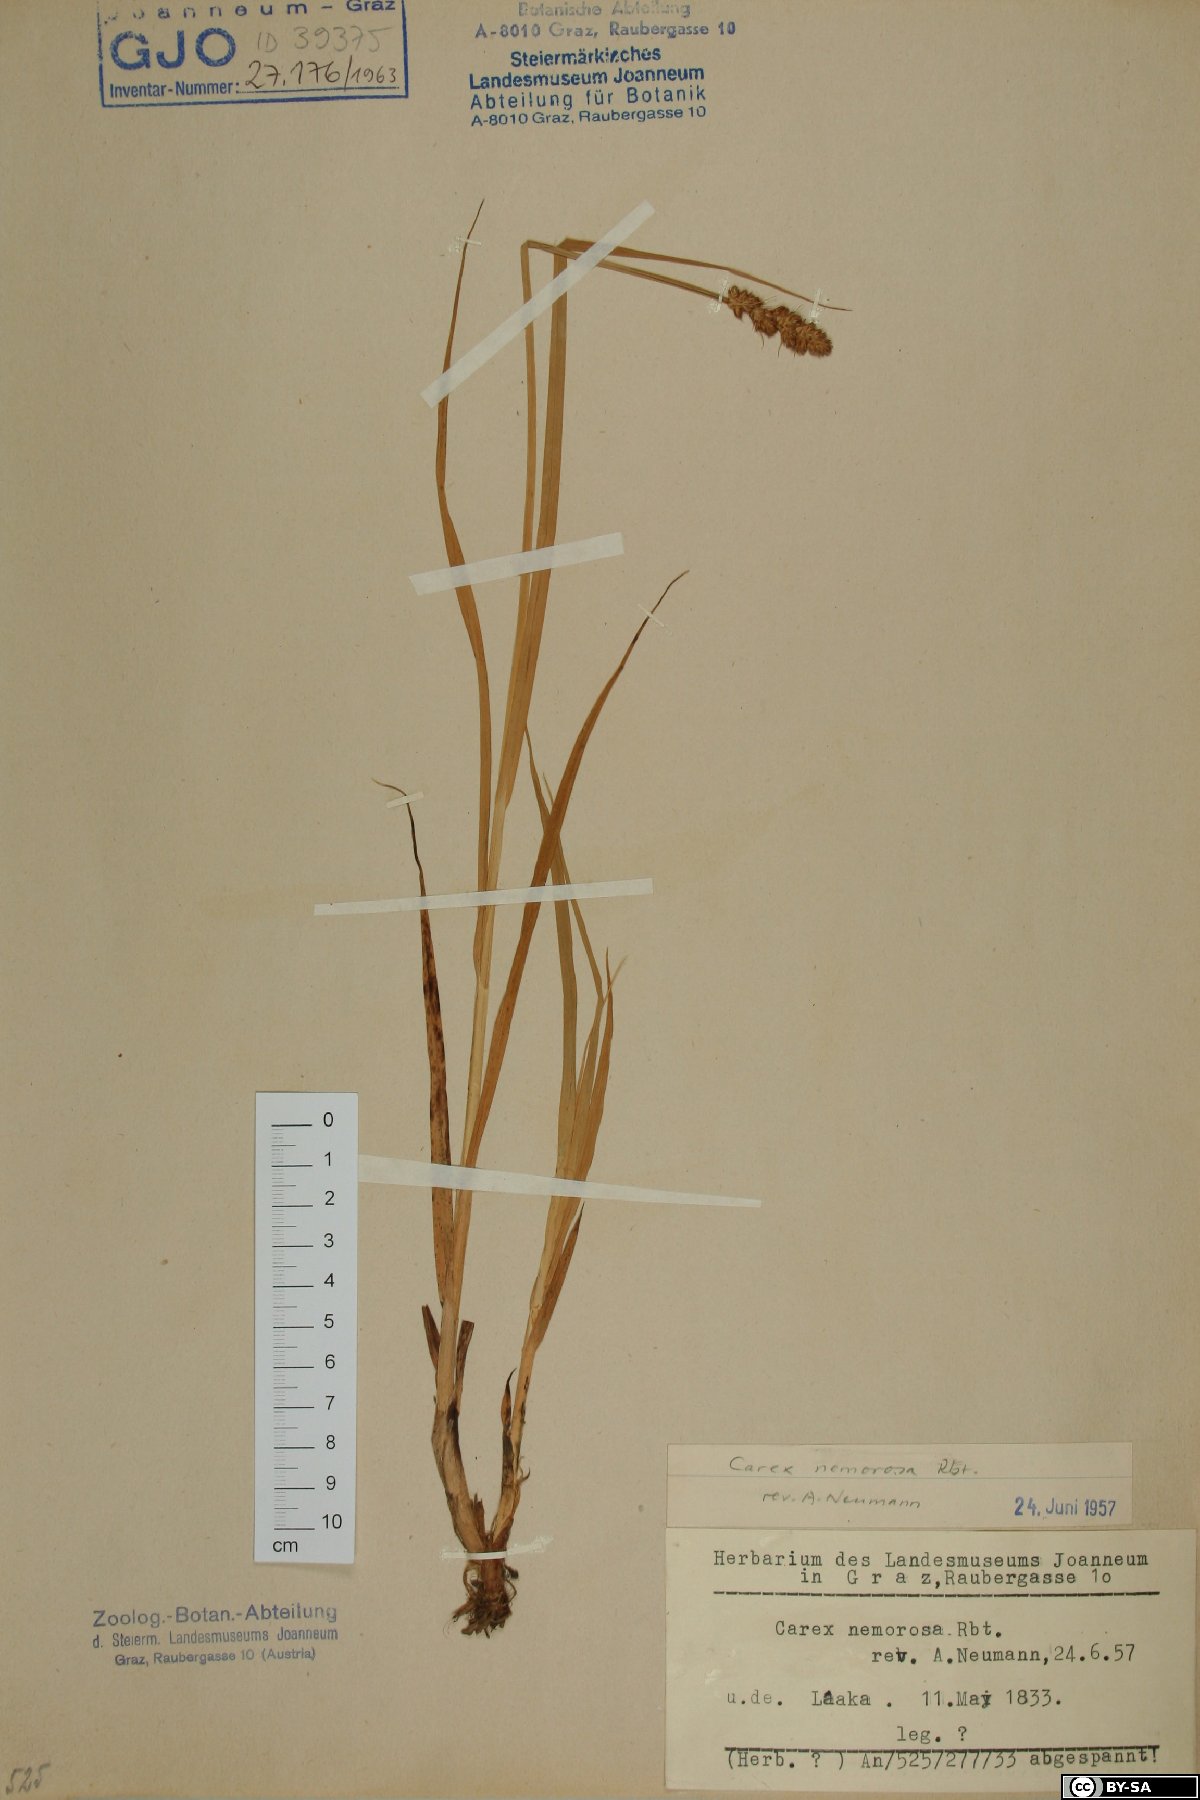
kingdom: Plantae
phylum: Tracheophyta
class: Liliopsida
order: Poales
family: Cyperaceae
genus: Carex
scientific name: Carex otrubae
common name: False fox-sedge
